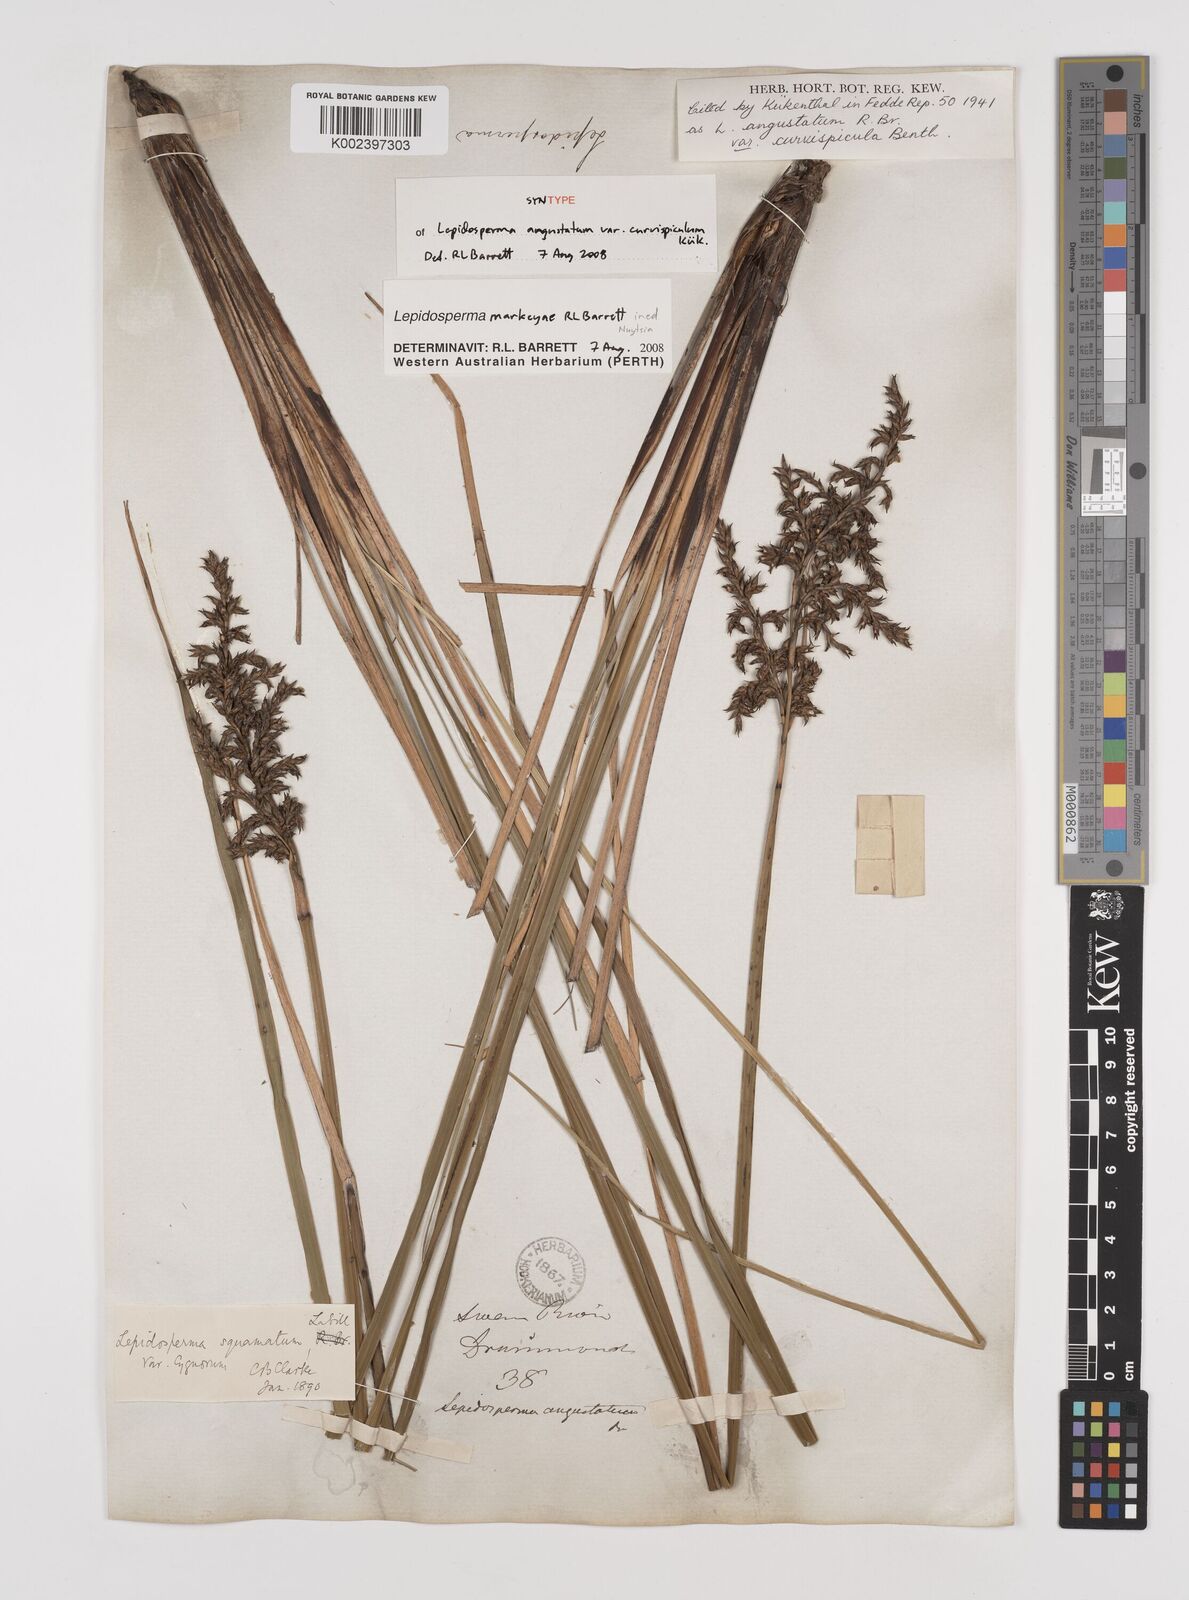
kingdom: Plantae
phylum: Tracheophyta
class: Liliopsida
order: Poales
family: Cyperaceae
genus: Lepidosperma
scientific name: Lepidosperma
